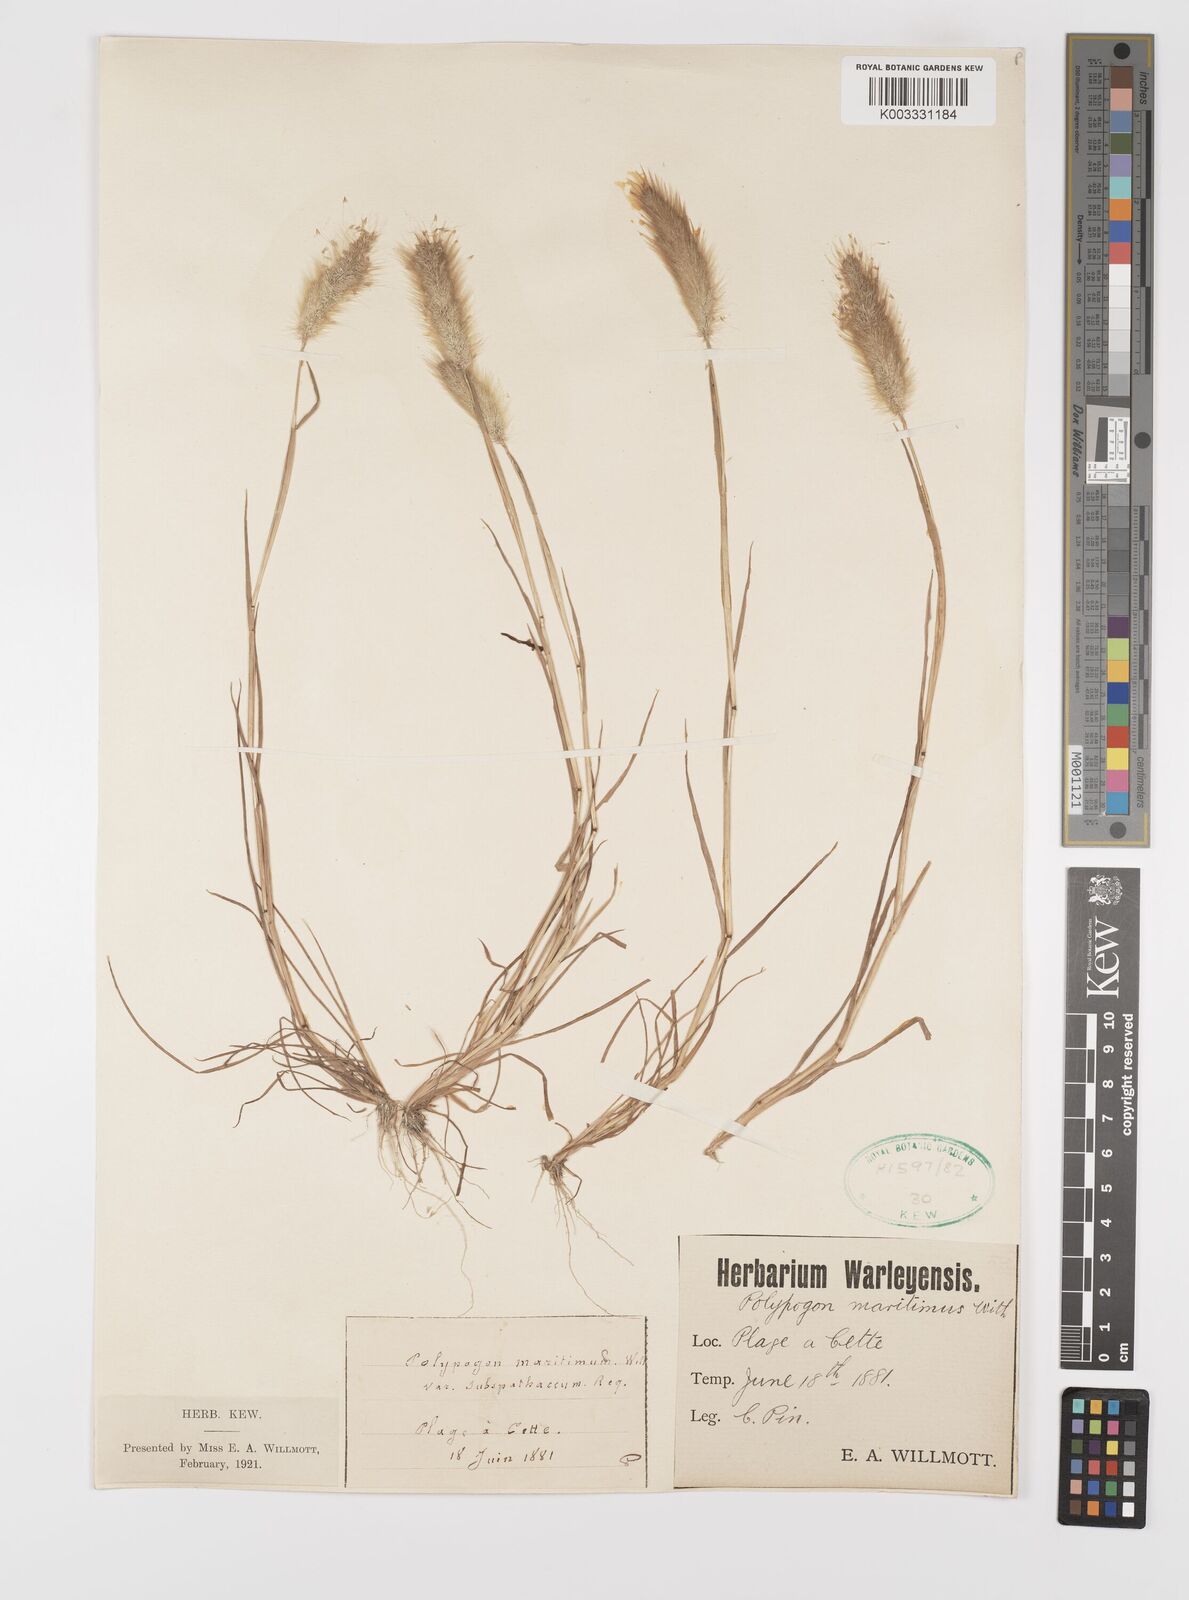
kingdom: Plantae
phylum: Tracheophyta
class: Liliopsida
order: Poales
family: Poaceae
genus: Polypogon
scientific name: Polypogon maritimus
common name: Mediterranean rabbitsfoot grass
